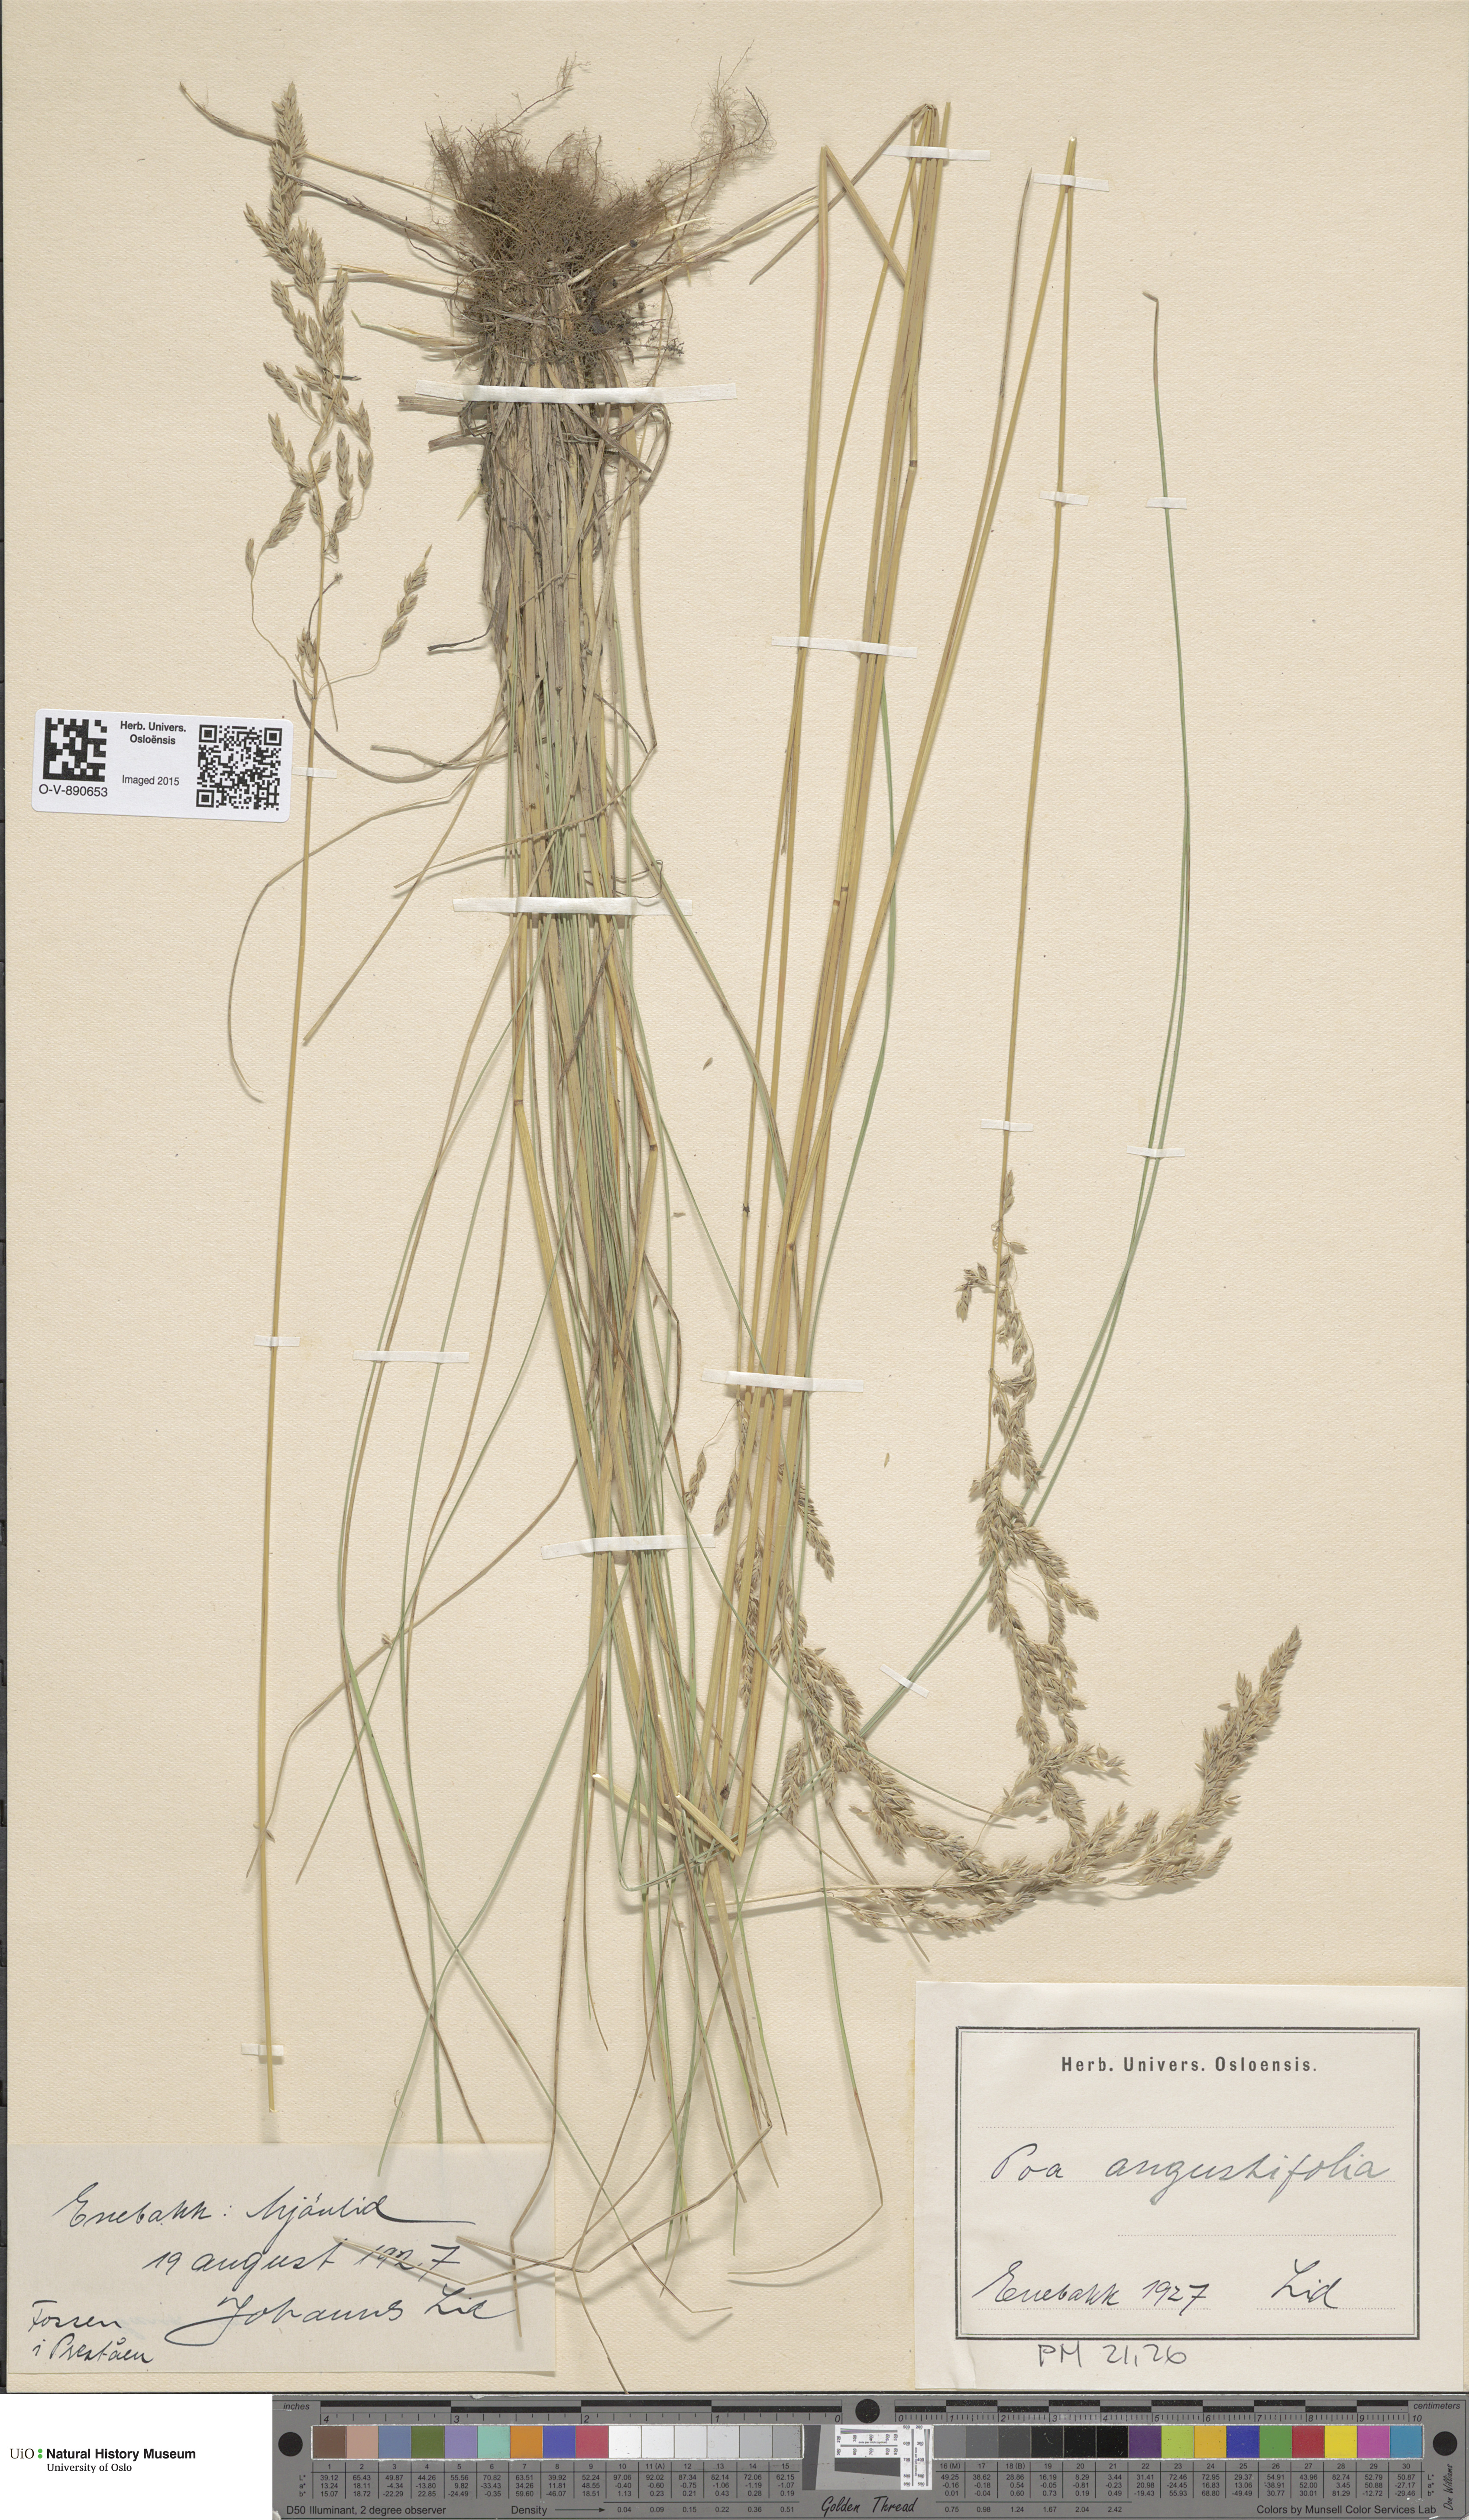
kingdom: Plantae
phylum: Tracheophyta
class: Liliopsida
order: Poales
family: Poaceae
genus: Poa
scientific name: Poa angustifolia
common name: Narrow-leaved meadow-grass
